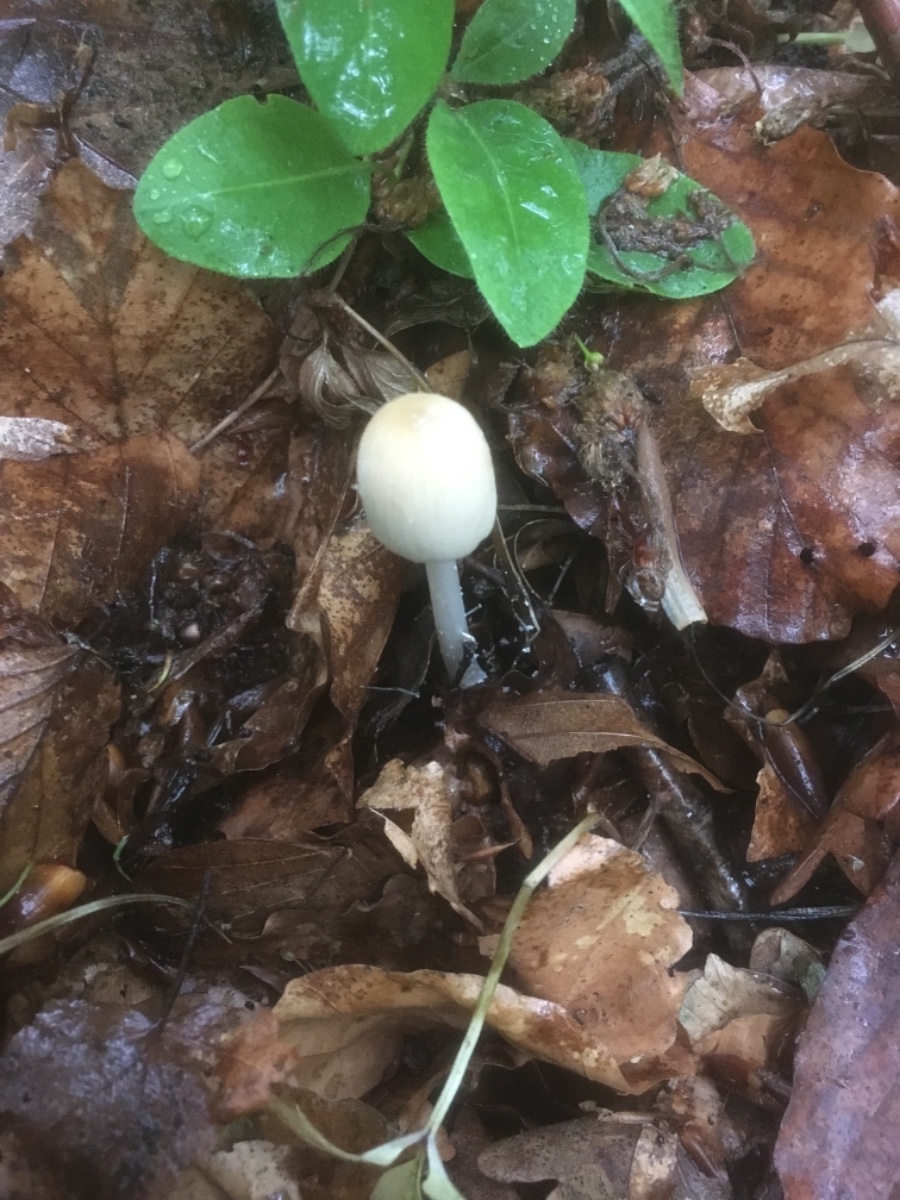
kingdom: Fungi
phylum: Basidiomycota
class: Agaricomycetes
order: Agaricales
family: Psathyrellaceae
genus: Coprinellus
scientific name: Coprinellus xanthothrix
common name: gultrådet blækhat
